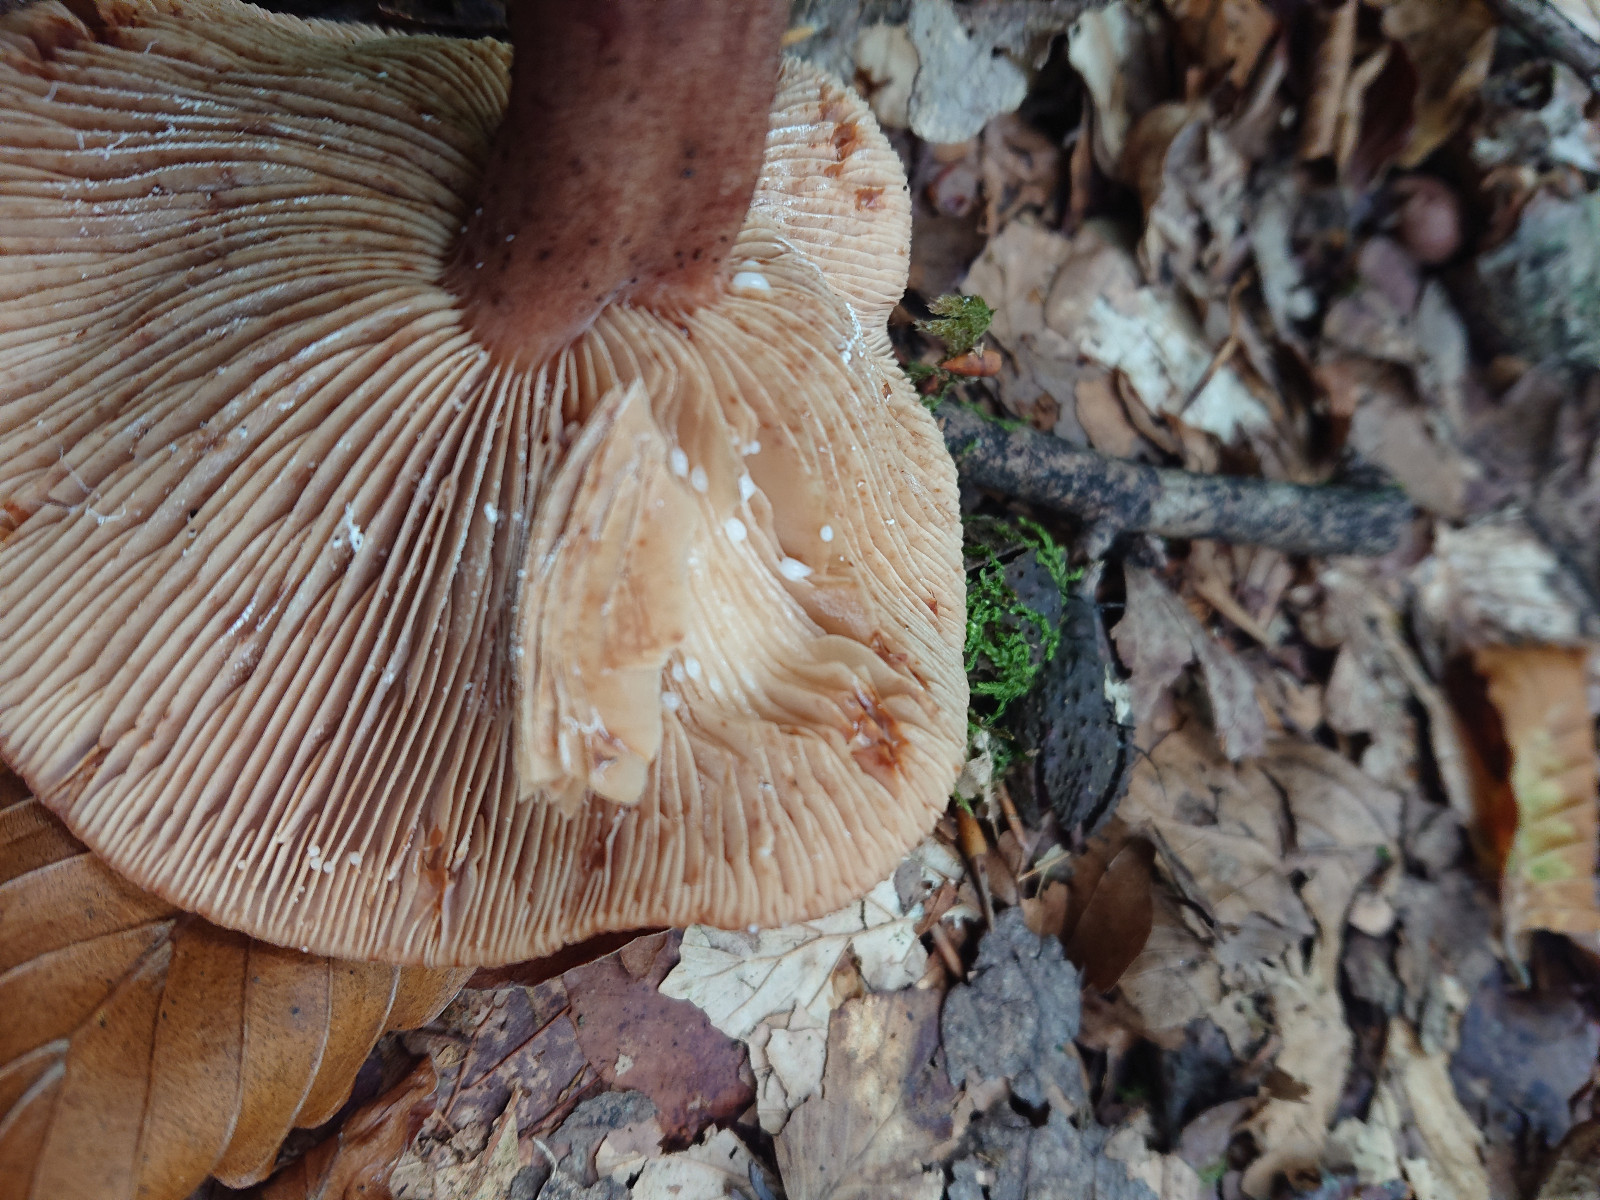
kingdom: Fungi
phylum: Basidiomycota
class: Agaricomycetes
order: Russulales
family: Russulaceae
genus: Lactarius
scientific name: Lactarius
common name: mælkehat
